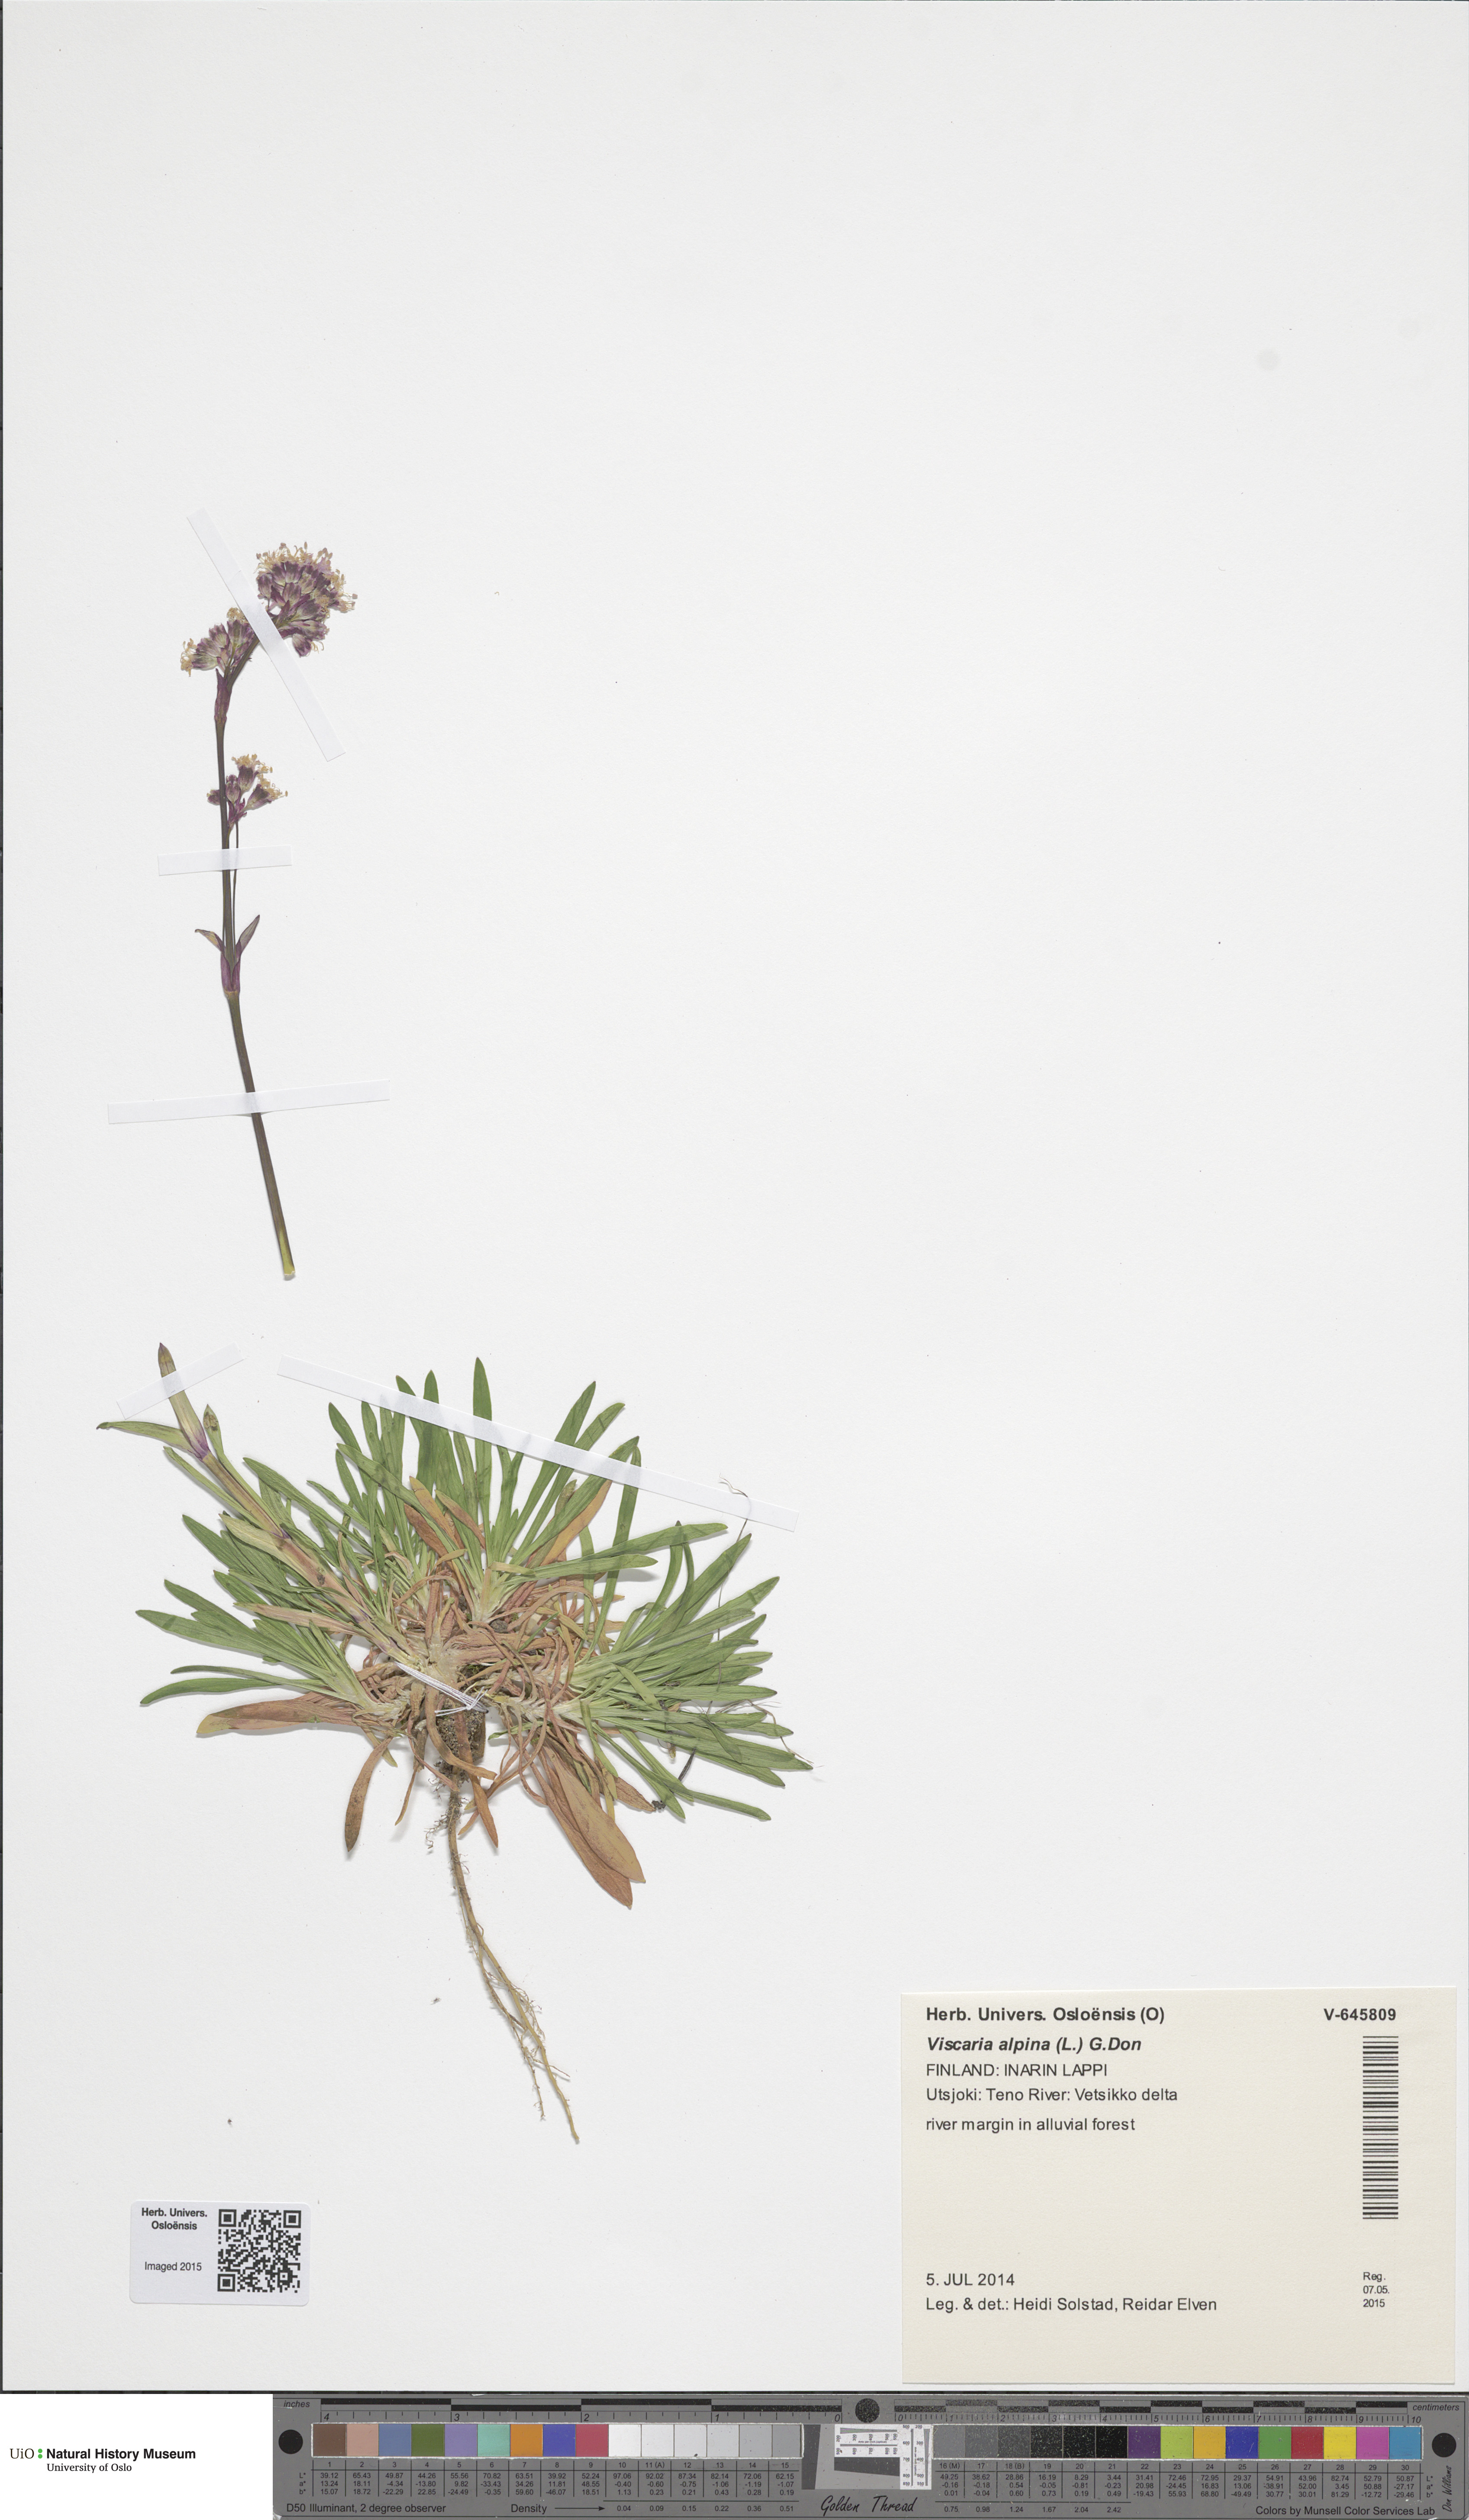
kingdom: Plantae
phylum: Tracheophyta
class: Magnoliopsida
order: Caryophyllales
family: Caryophyllaceae
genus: Viscaria
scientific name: Viscaria alpina
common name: Alpine campion
